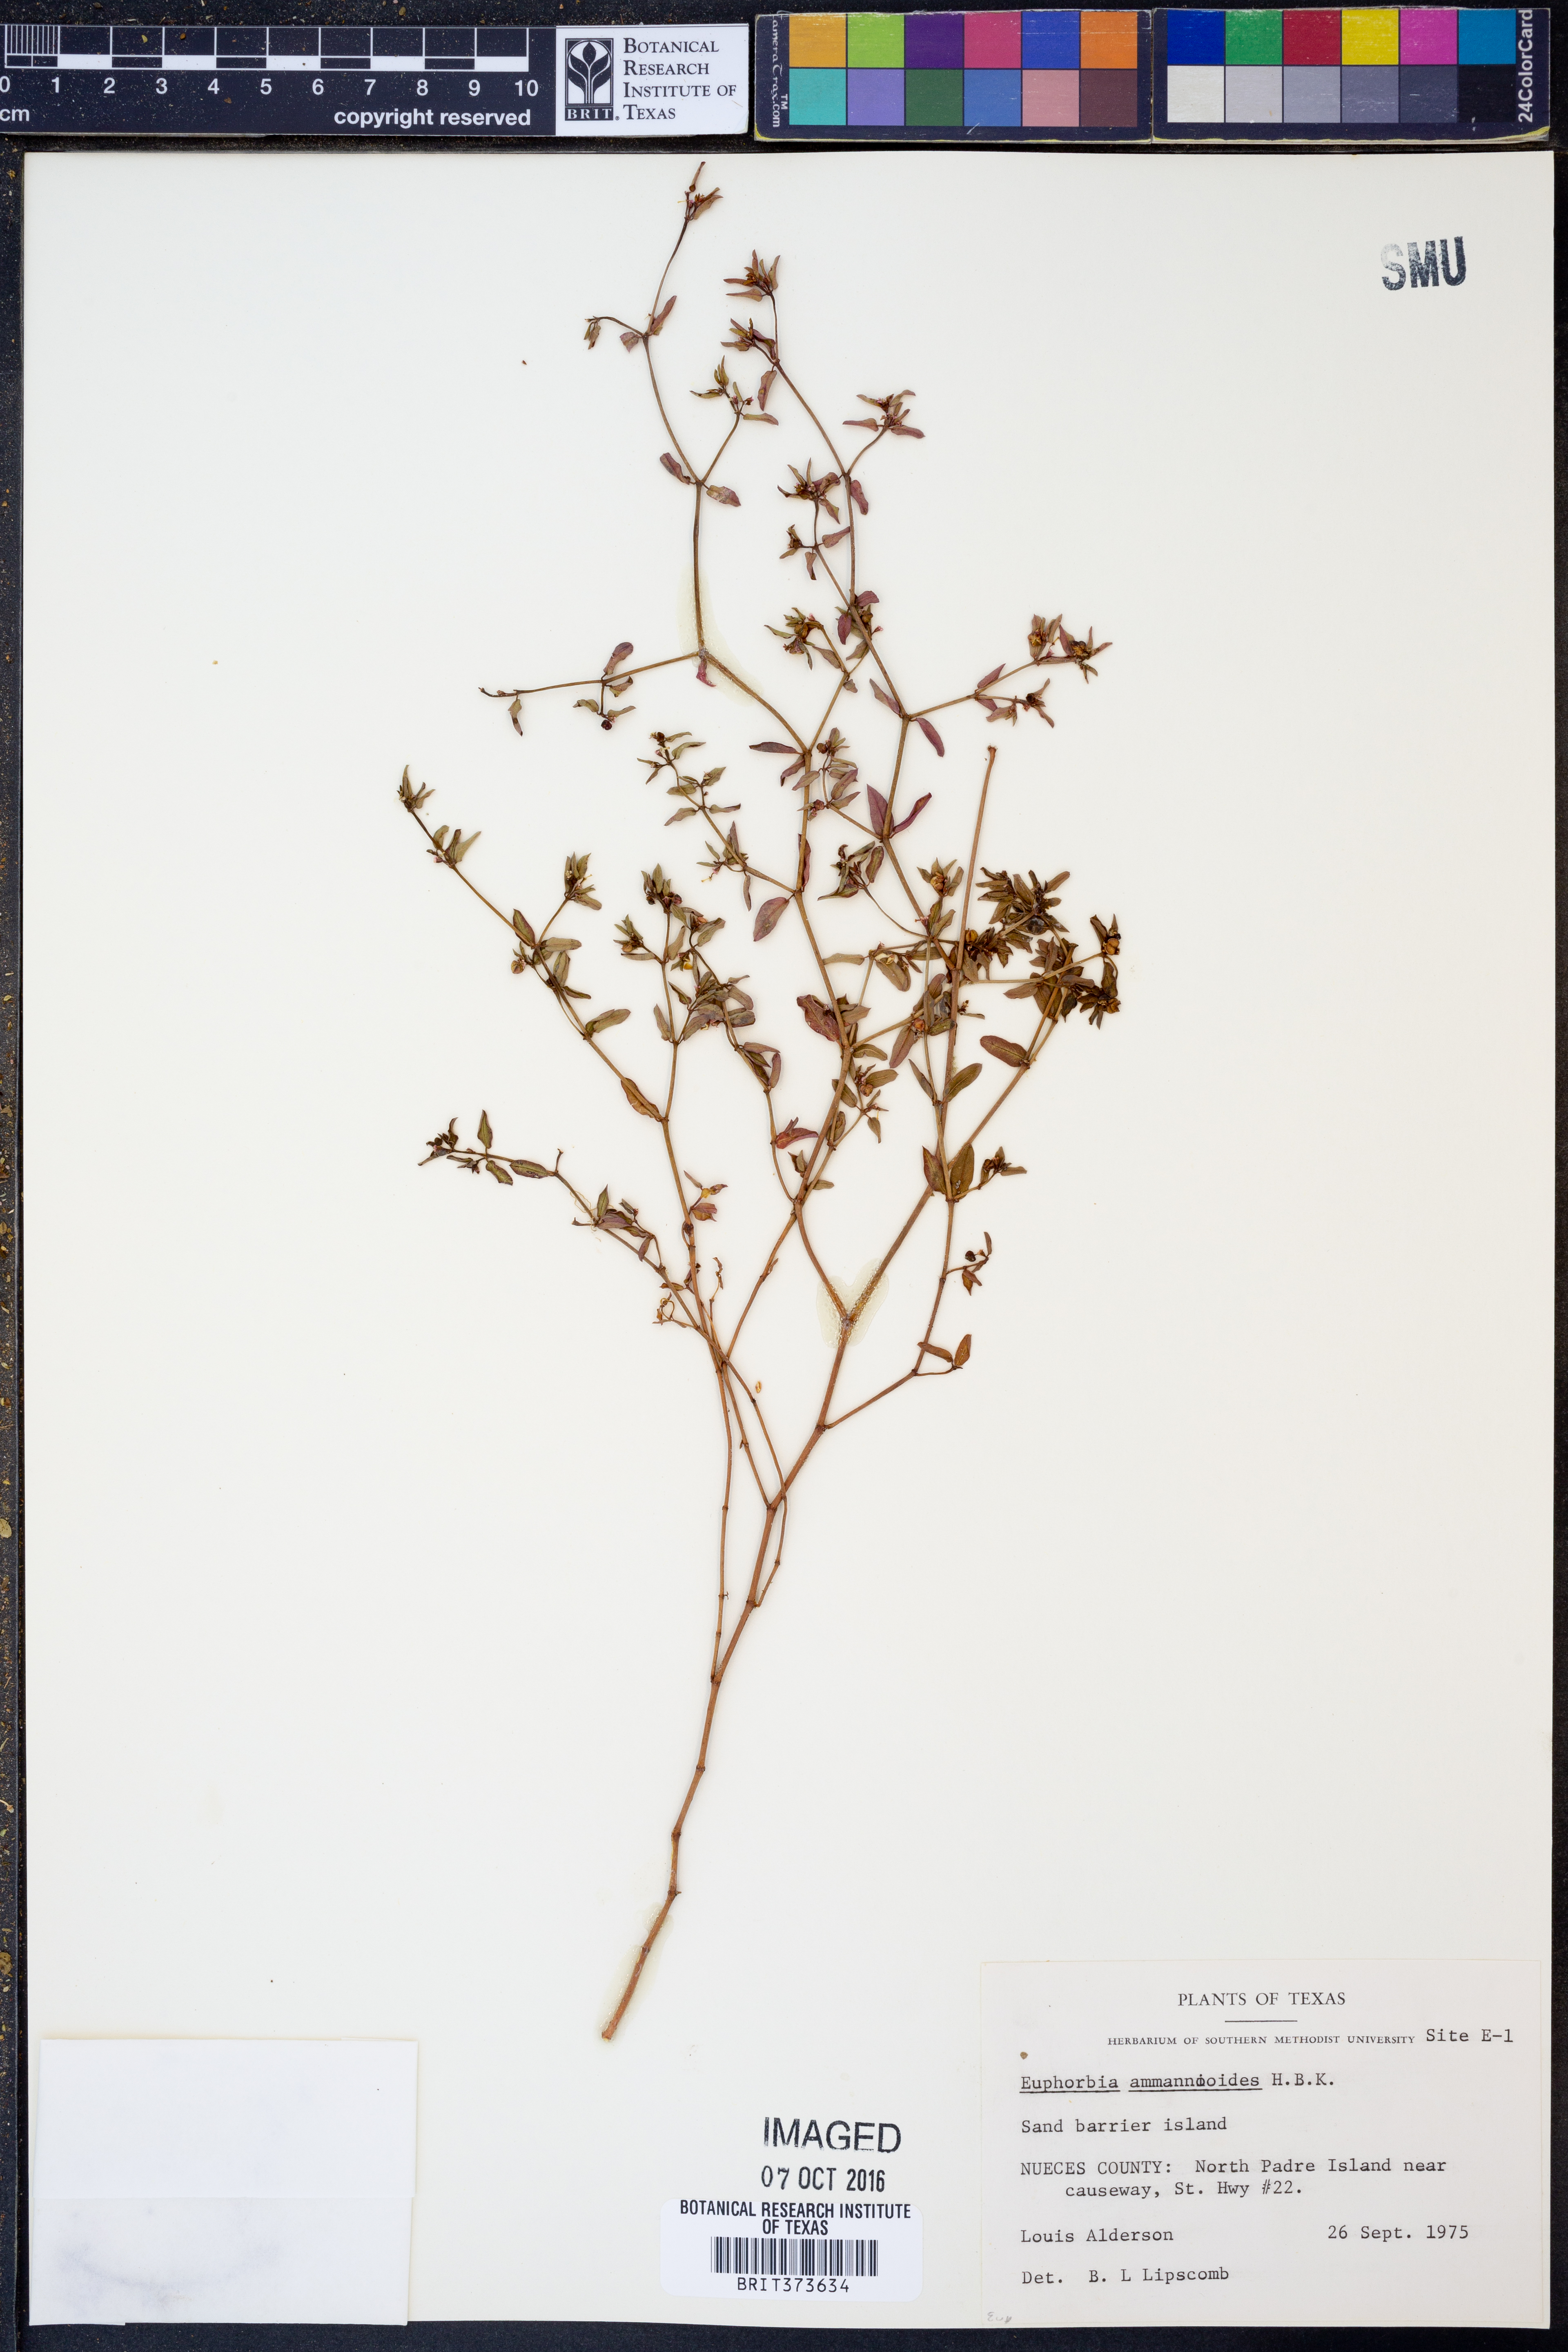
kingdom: Plantae
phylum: Tracheophyta
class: Magnoliopsida
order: Malpighiales
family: Euphorbiaceae
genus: Euphorbia
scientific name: Euphorbia bombensis
